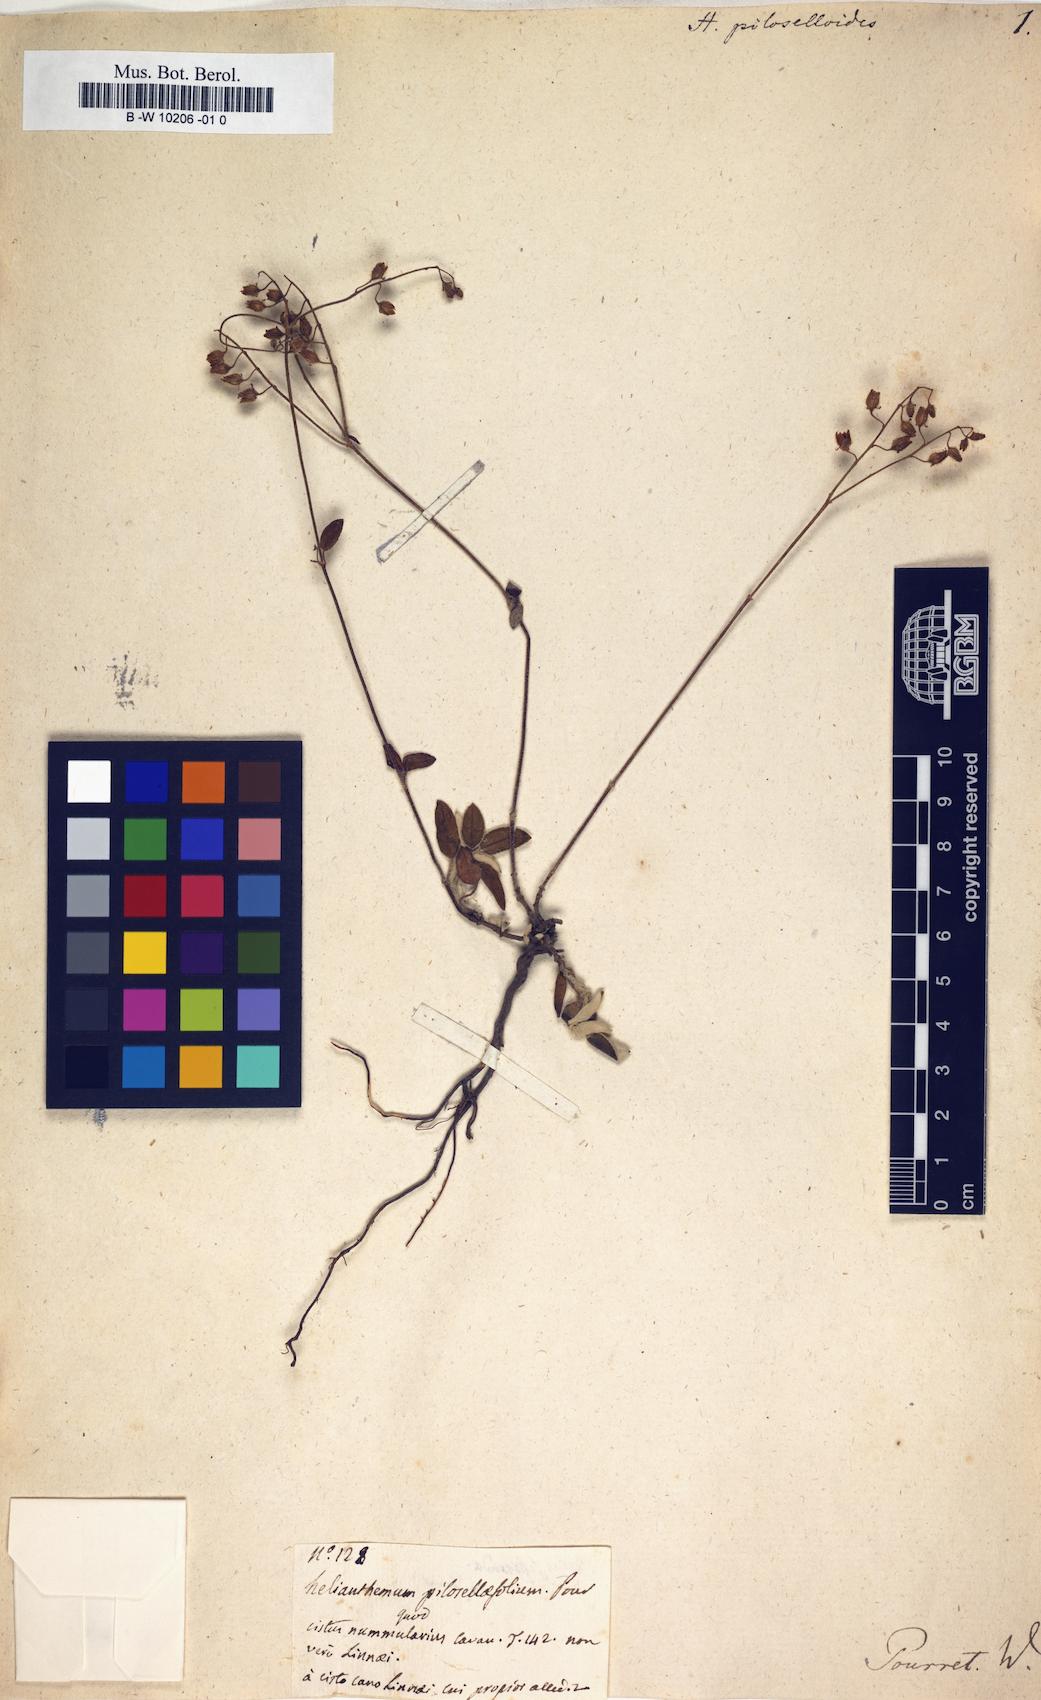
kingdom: Plantae
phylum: Tracheophyta
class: Magnoliopsida
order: Malvales
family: Cistaceae
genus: Helianthemum
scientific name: Helianthemum canum
